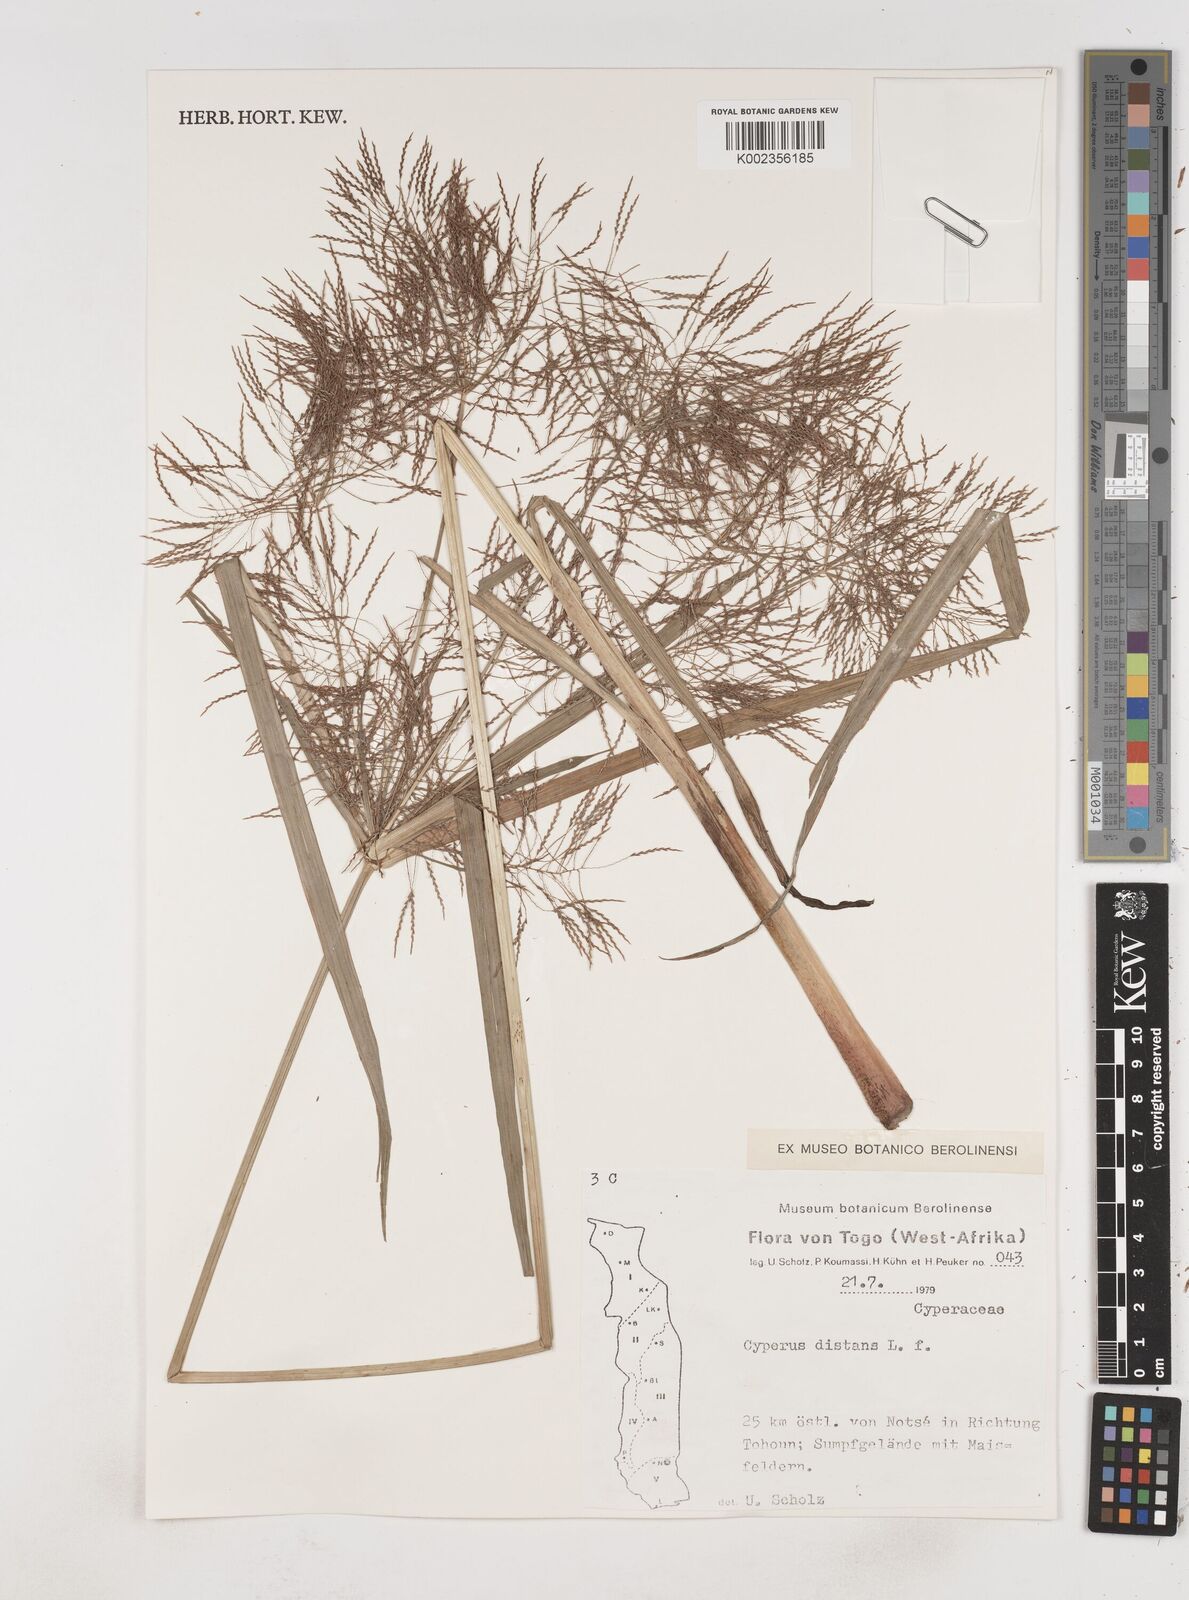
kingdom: Plantae
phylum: Tracheophyta
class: Liliopsida
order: Poales
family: Cyperaceae
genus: Cyperus
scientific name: Cyperus distans
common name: Slender cyperus
